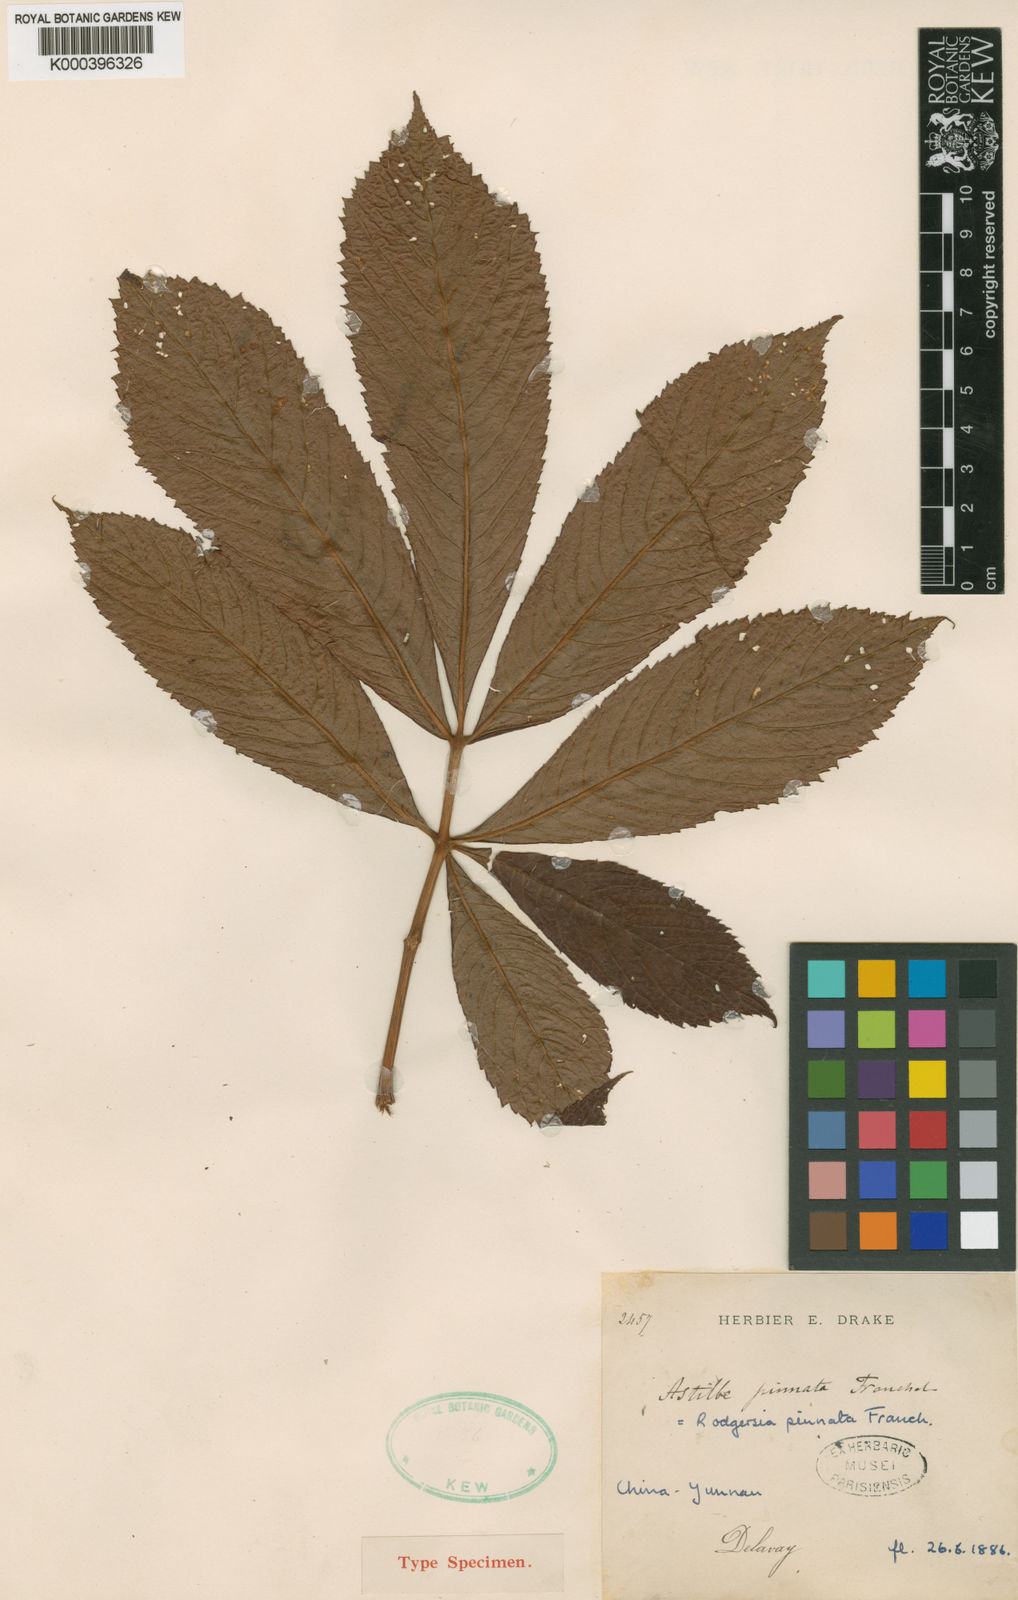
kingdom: Plantae
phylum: Tracheophyta
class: Magnoliopsida
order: Saxifragales
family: Saxifragaceae
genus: Rodgersia
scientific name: Rodgersia pinnata
